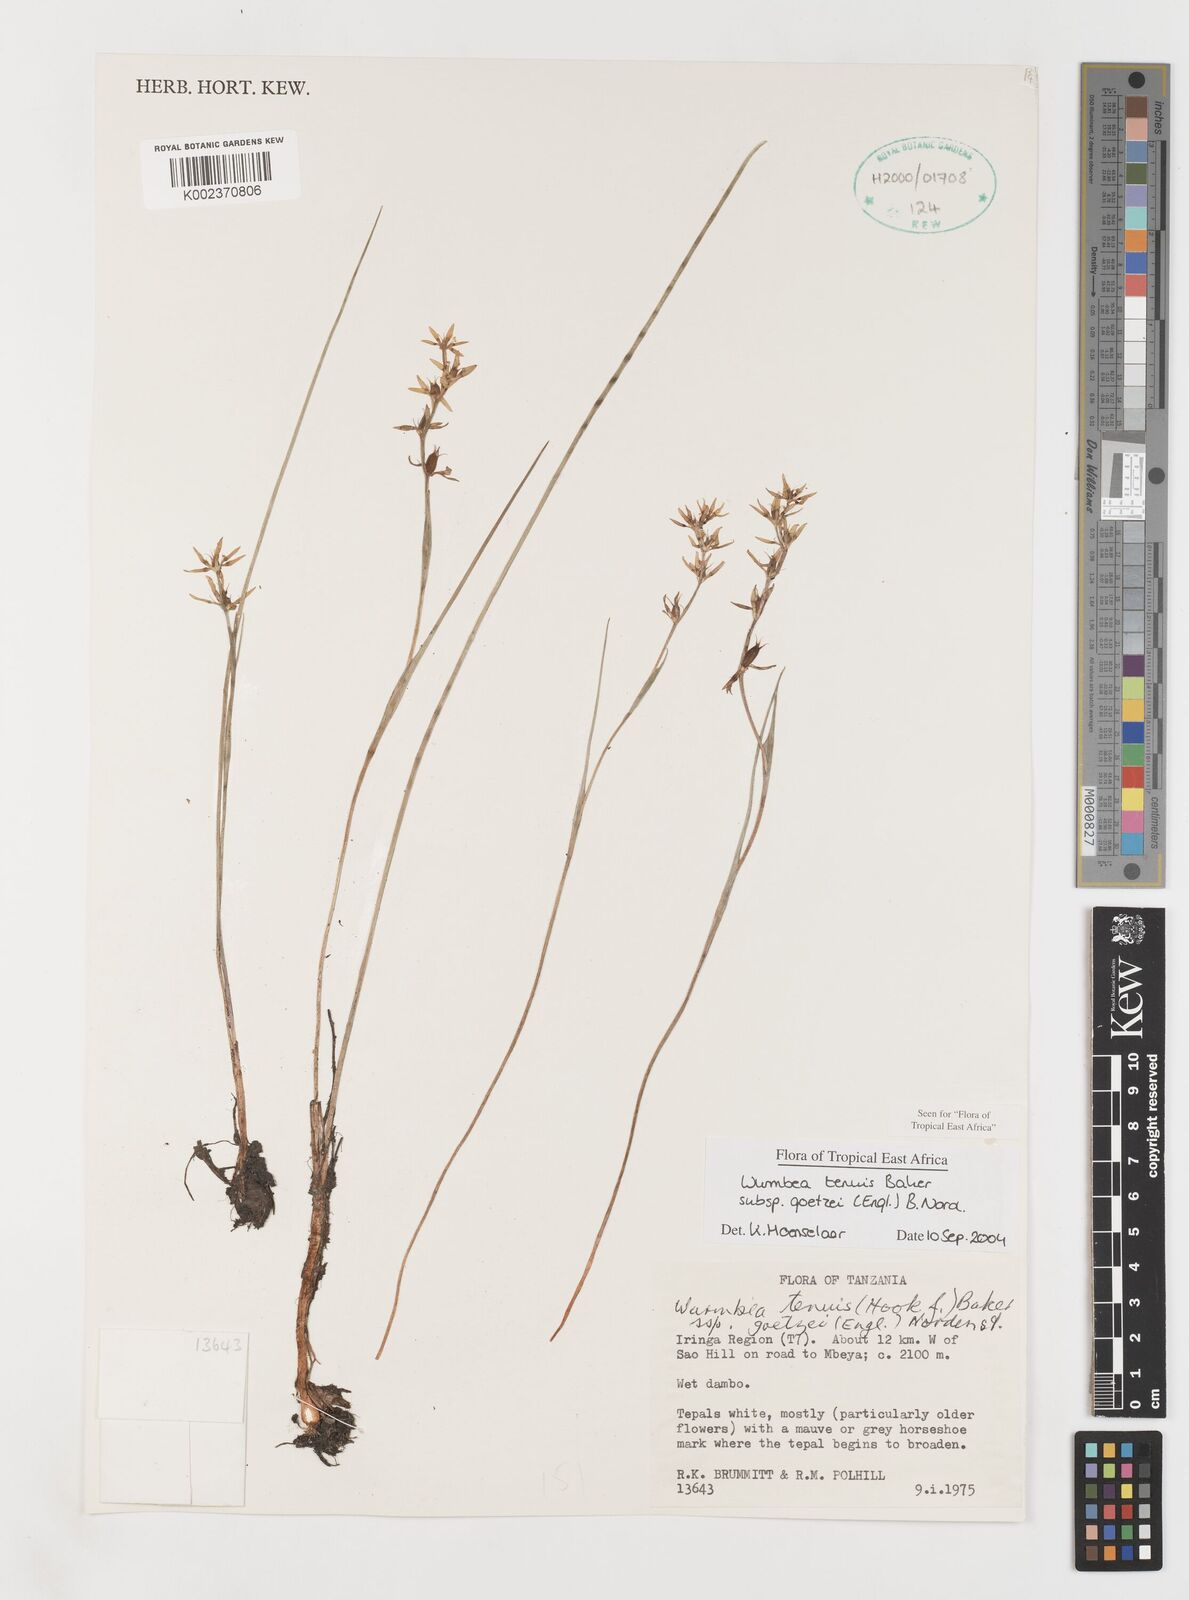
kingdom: Plantae
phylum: Tracheophyta
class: Liliopsida
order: Liliales
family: Colchicaceae
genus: Wurmbea
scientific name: Wurmbea tenuis
